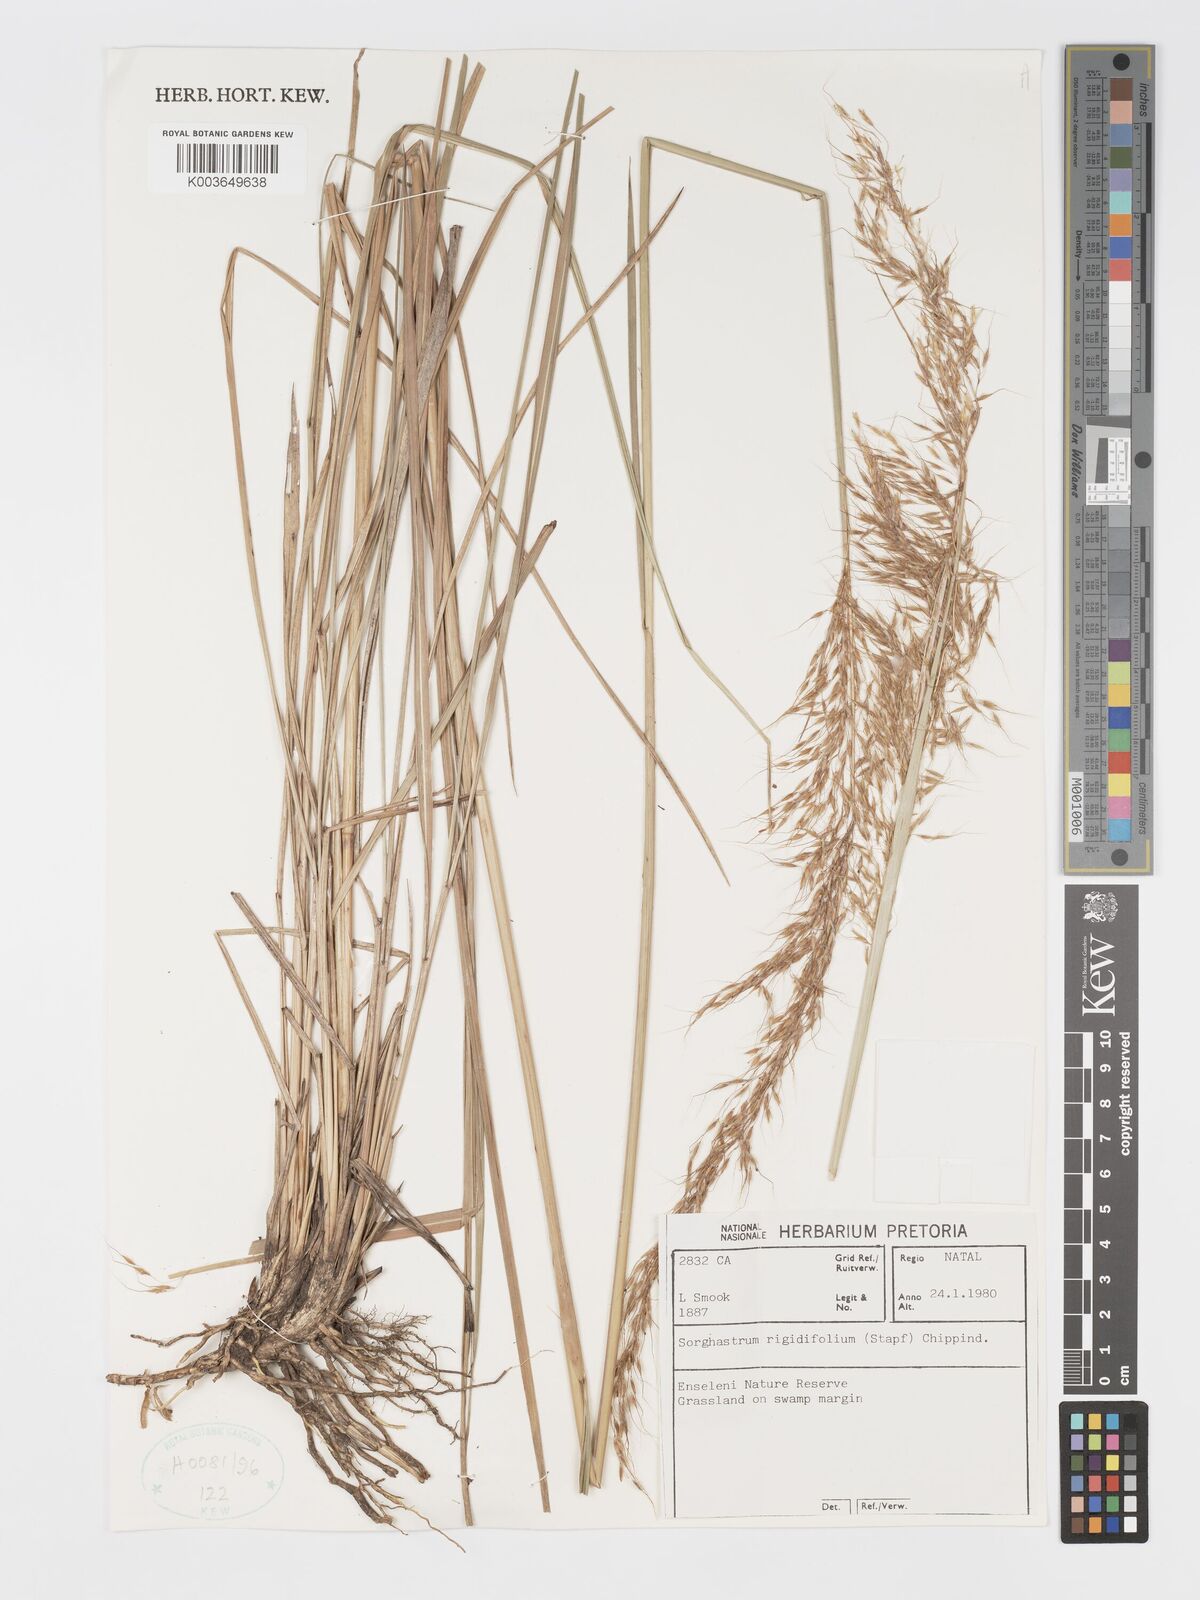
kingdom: Plantae
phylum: Tracheophyta
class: Liliopsida
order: Poales
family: Poaceae
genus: Sorghastrum
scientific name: Sorghastrum stipoides
